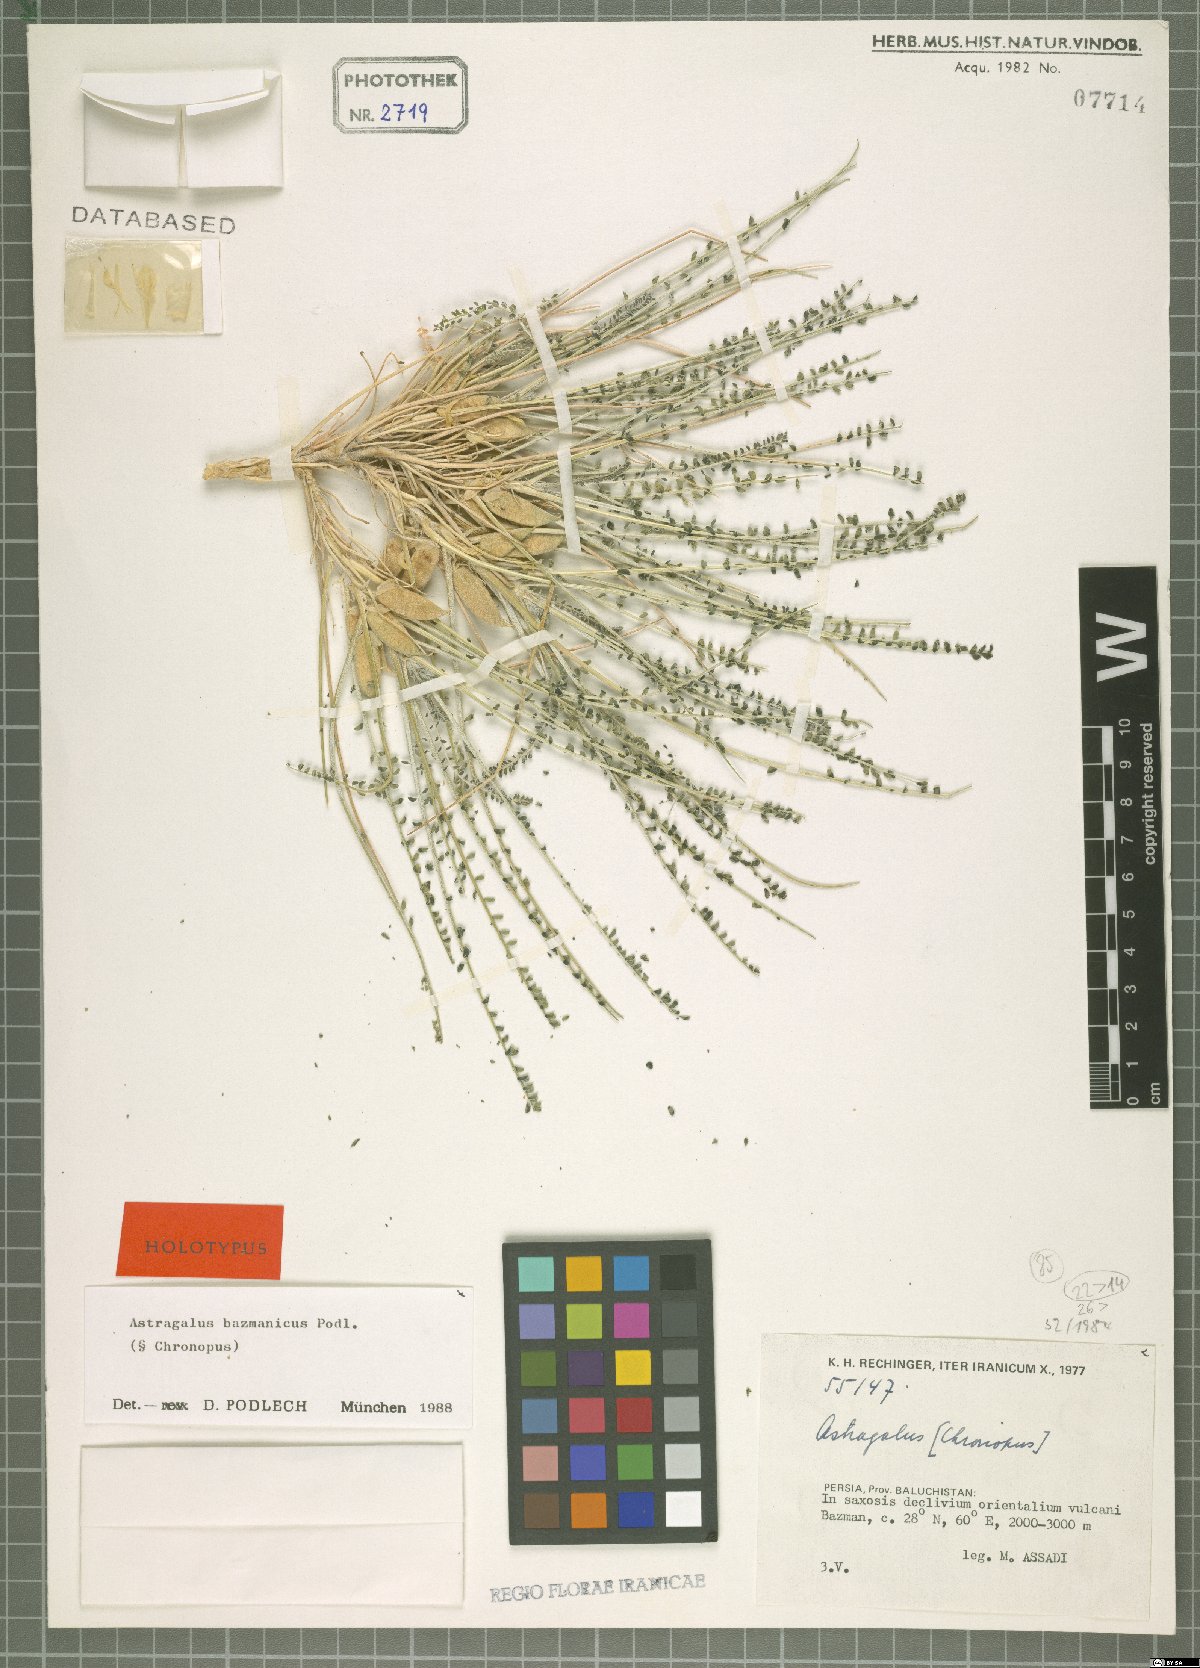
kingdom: Plantae
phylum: Tracheophyta
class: Magnoliopsida
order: Fabales
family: Fabaceae
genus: Astragalus
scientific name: Astragalus bazmanicus
